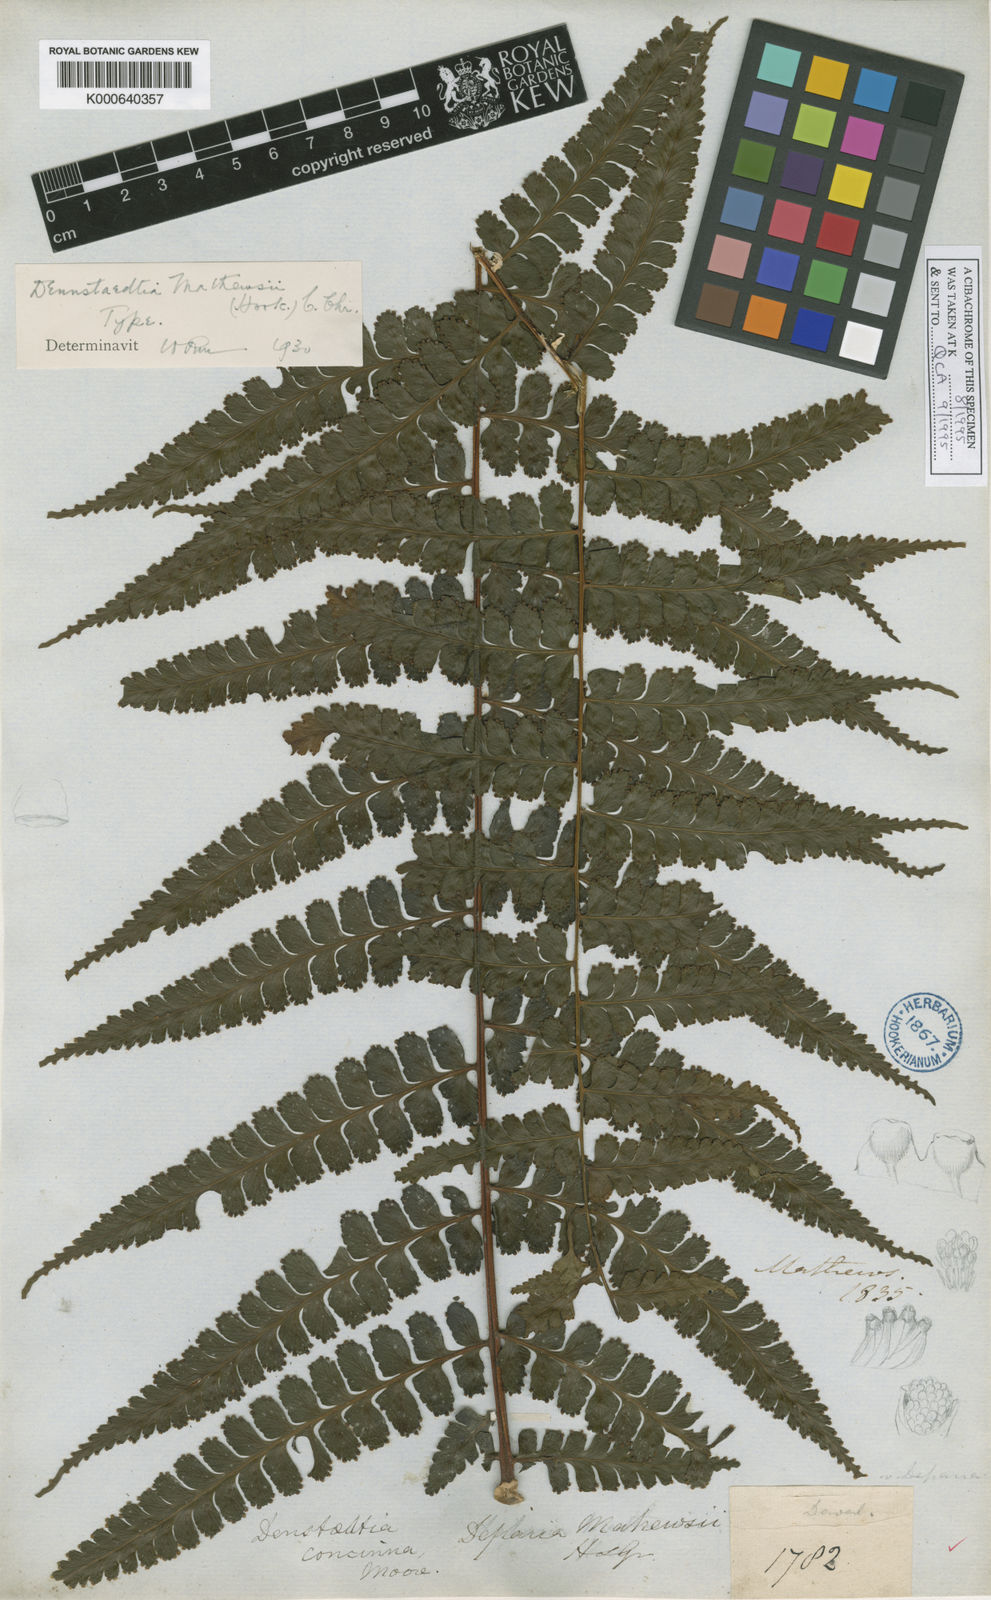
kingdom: Plantae
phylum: Tracheophyta
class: Polypodiopsida
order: Polypodiales
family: Dennstaedtiaceae
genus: Dennstaedtia
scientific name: Dennstaedtia mathewsii
